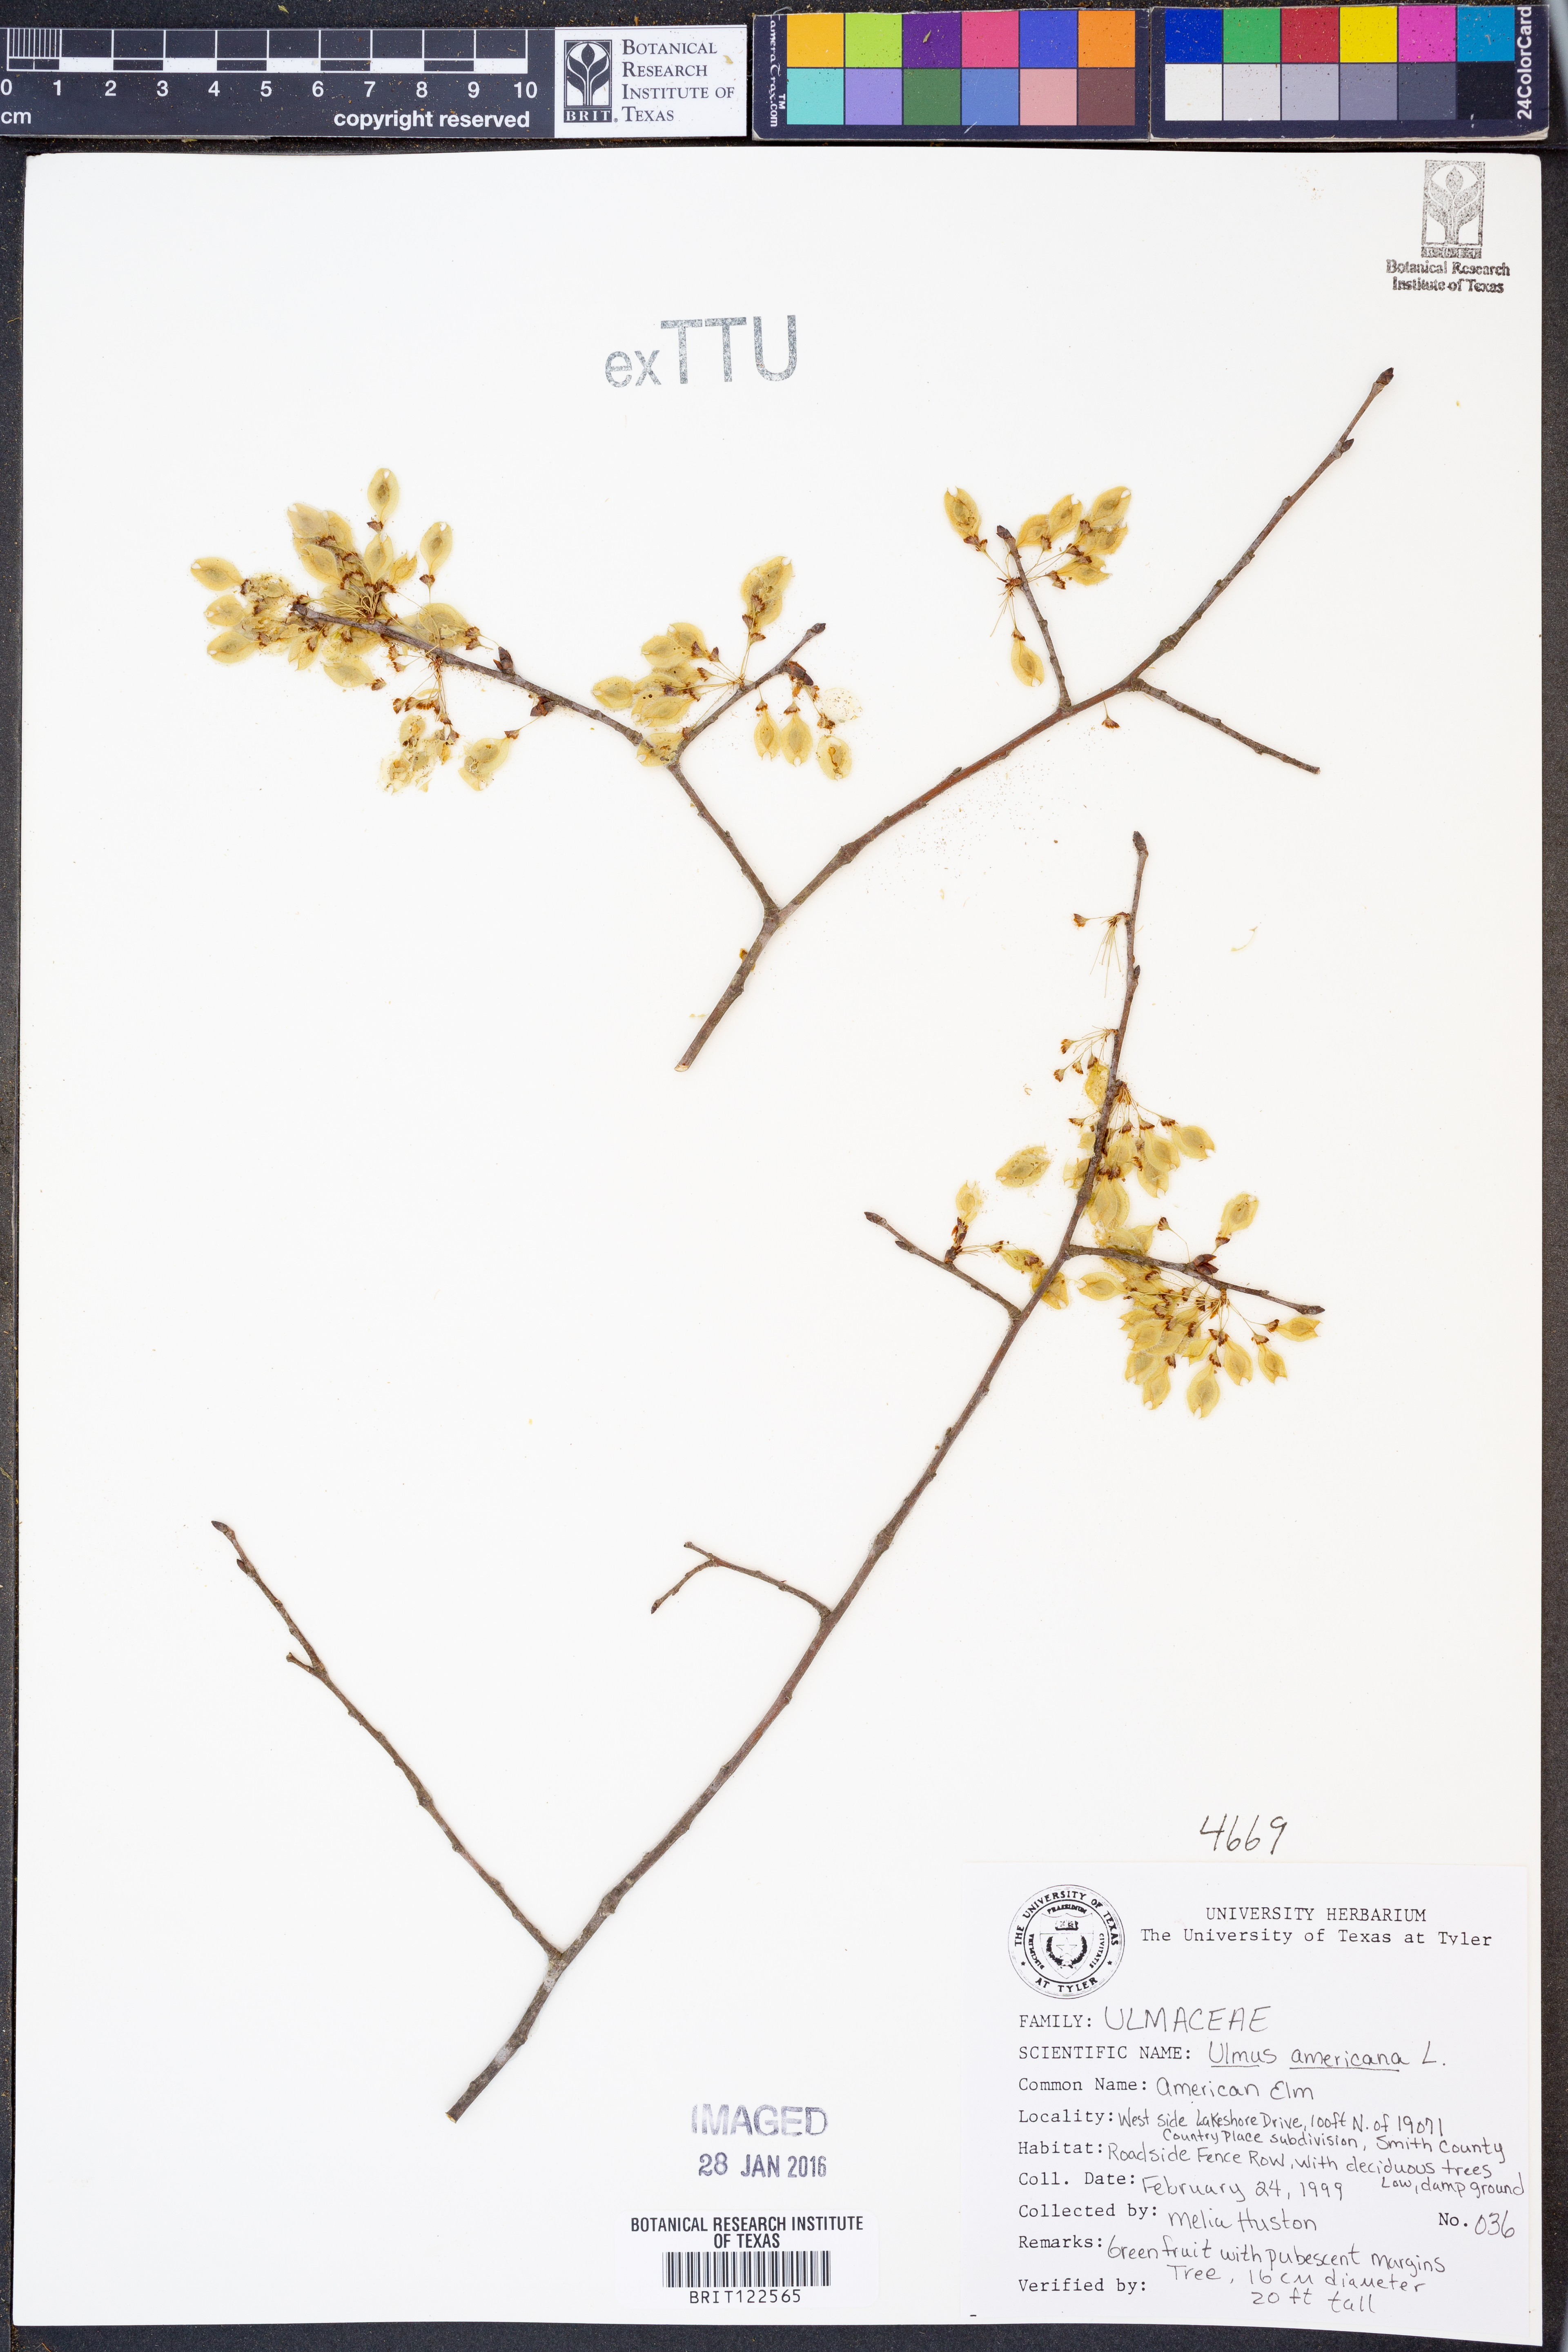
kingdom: Plantae
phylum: Tracheophyta
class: Magnoliopsida
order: Rosales
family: Ulmaceae
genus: Ulmus
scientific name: Ulmus americana
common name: American elm
